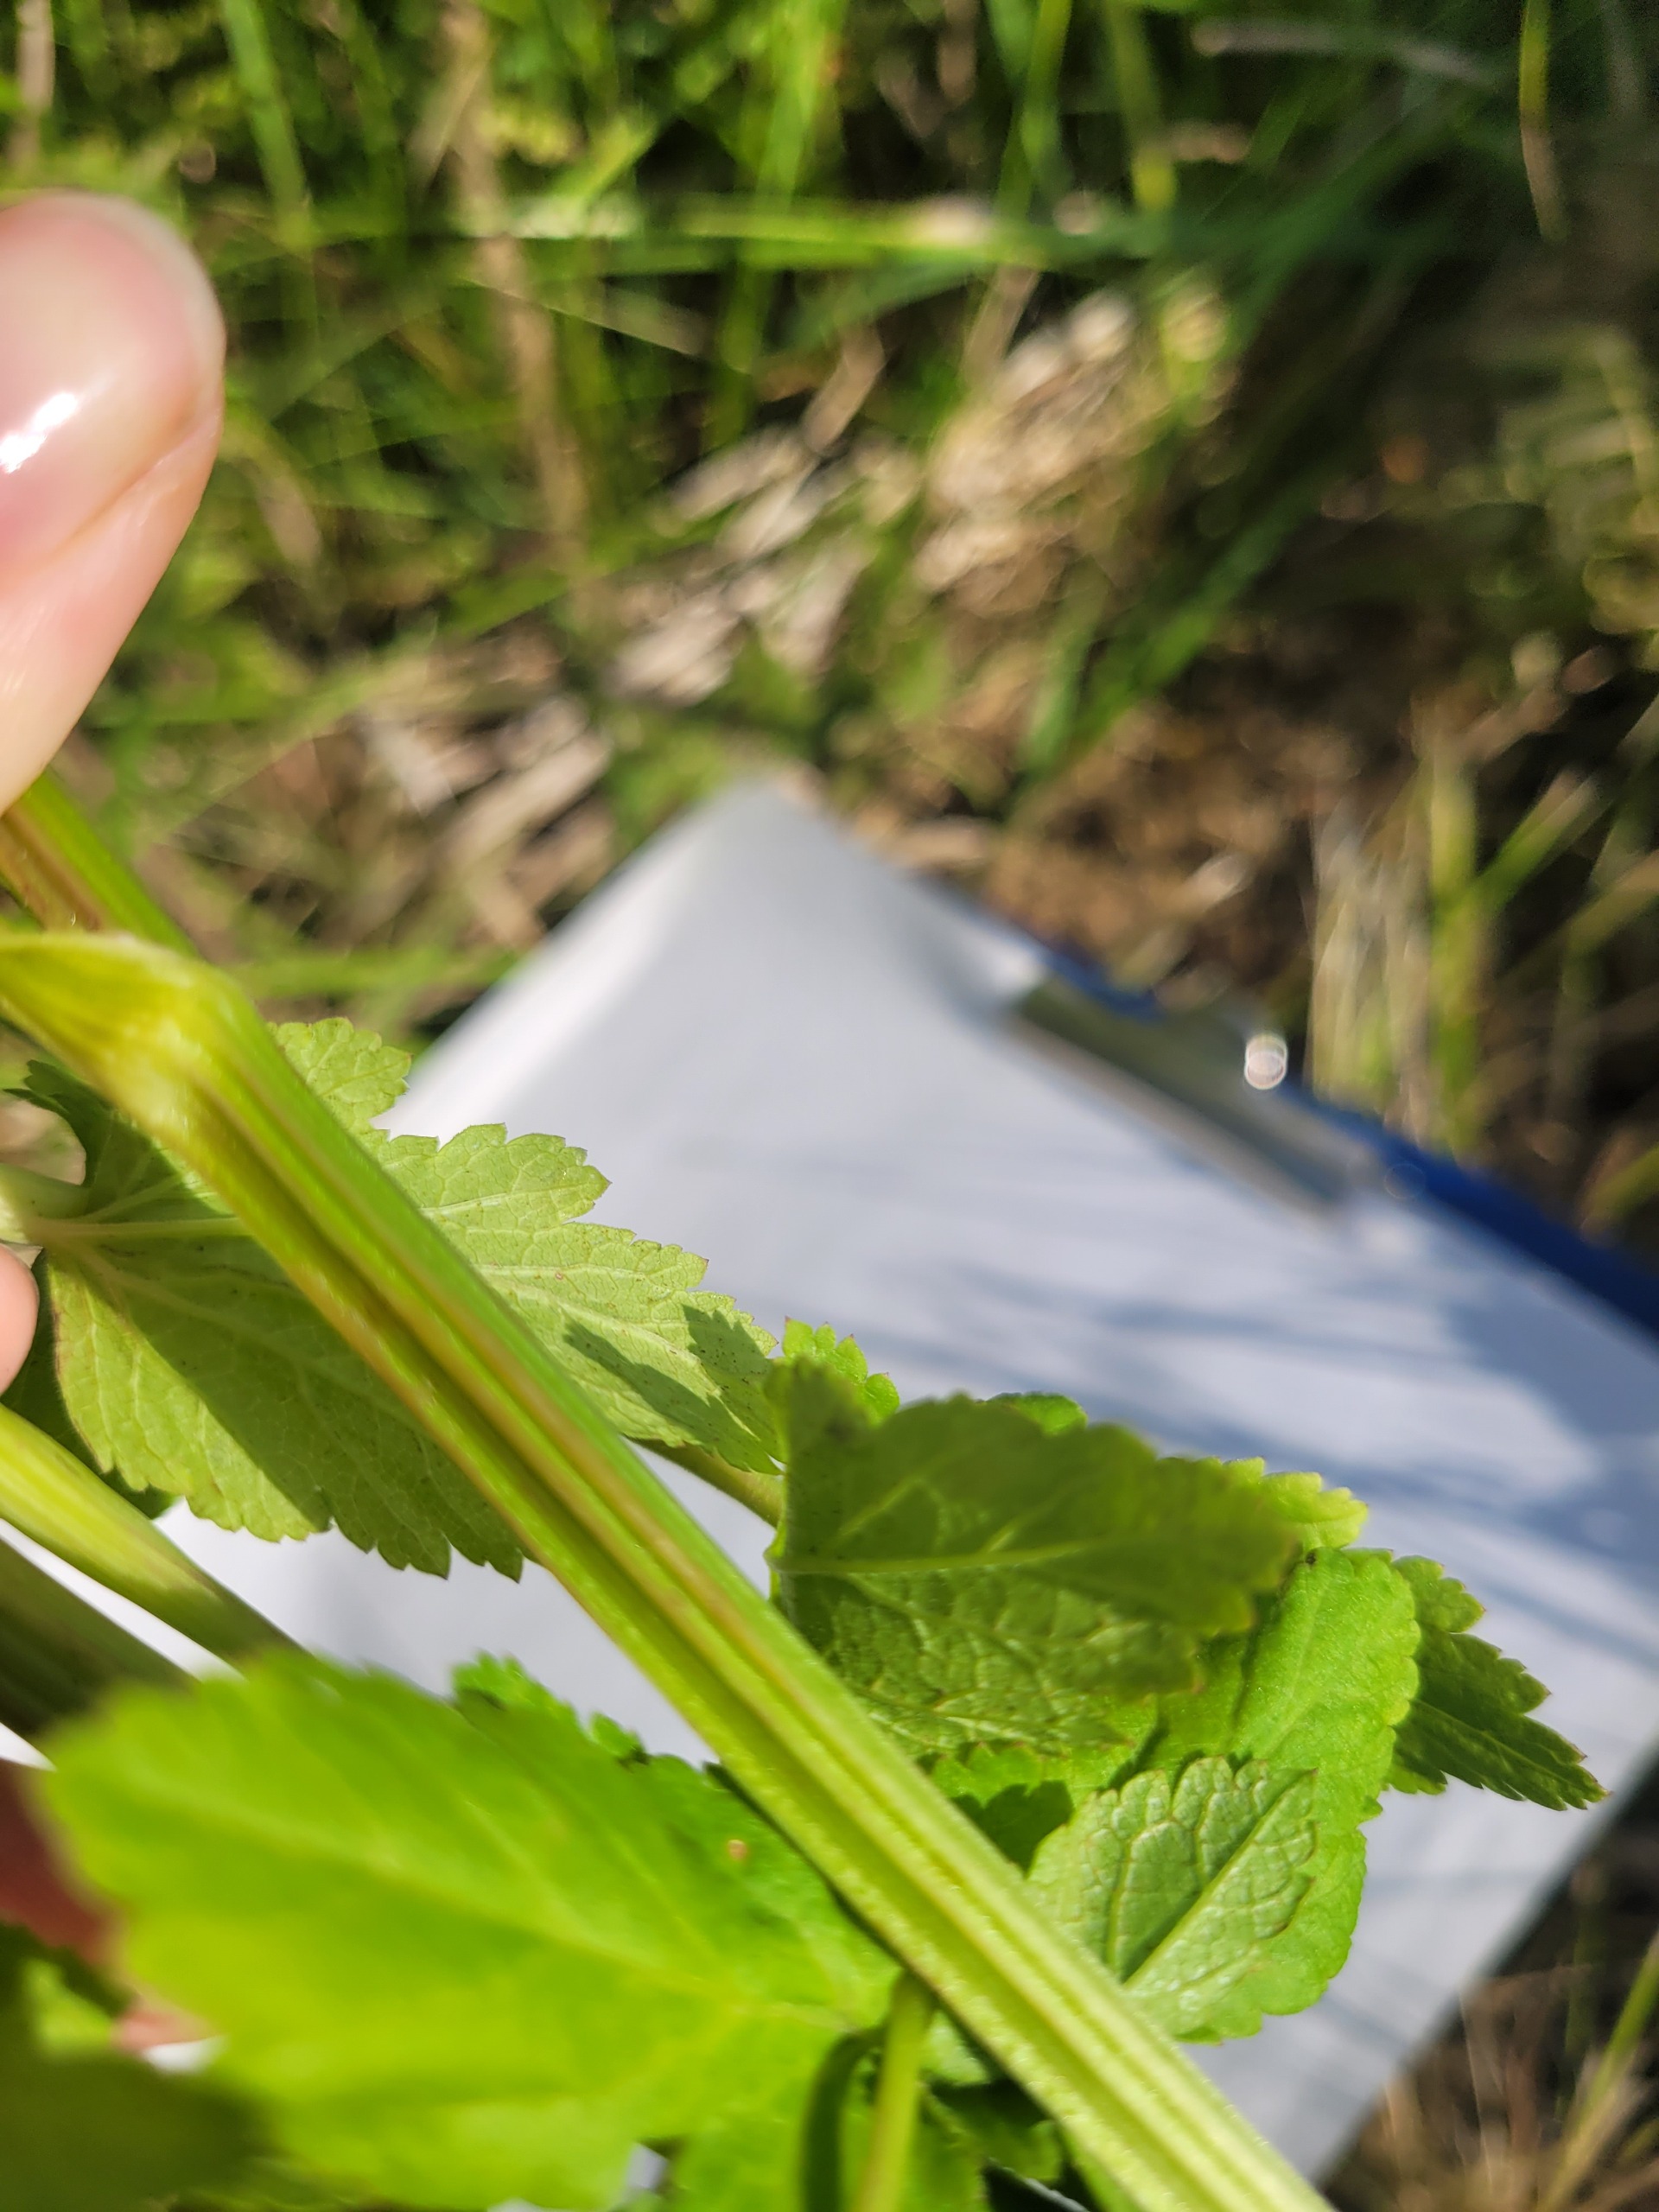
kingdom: Plantae
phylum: Tracheophyta
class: Magnoliopsida
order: Apiales
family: Apiaceae
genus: Pastinaca
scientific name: Pastinaca sativa
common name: Pastinak
